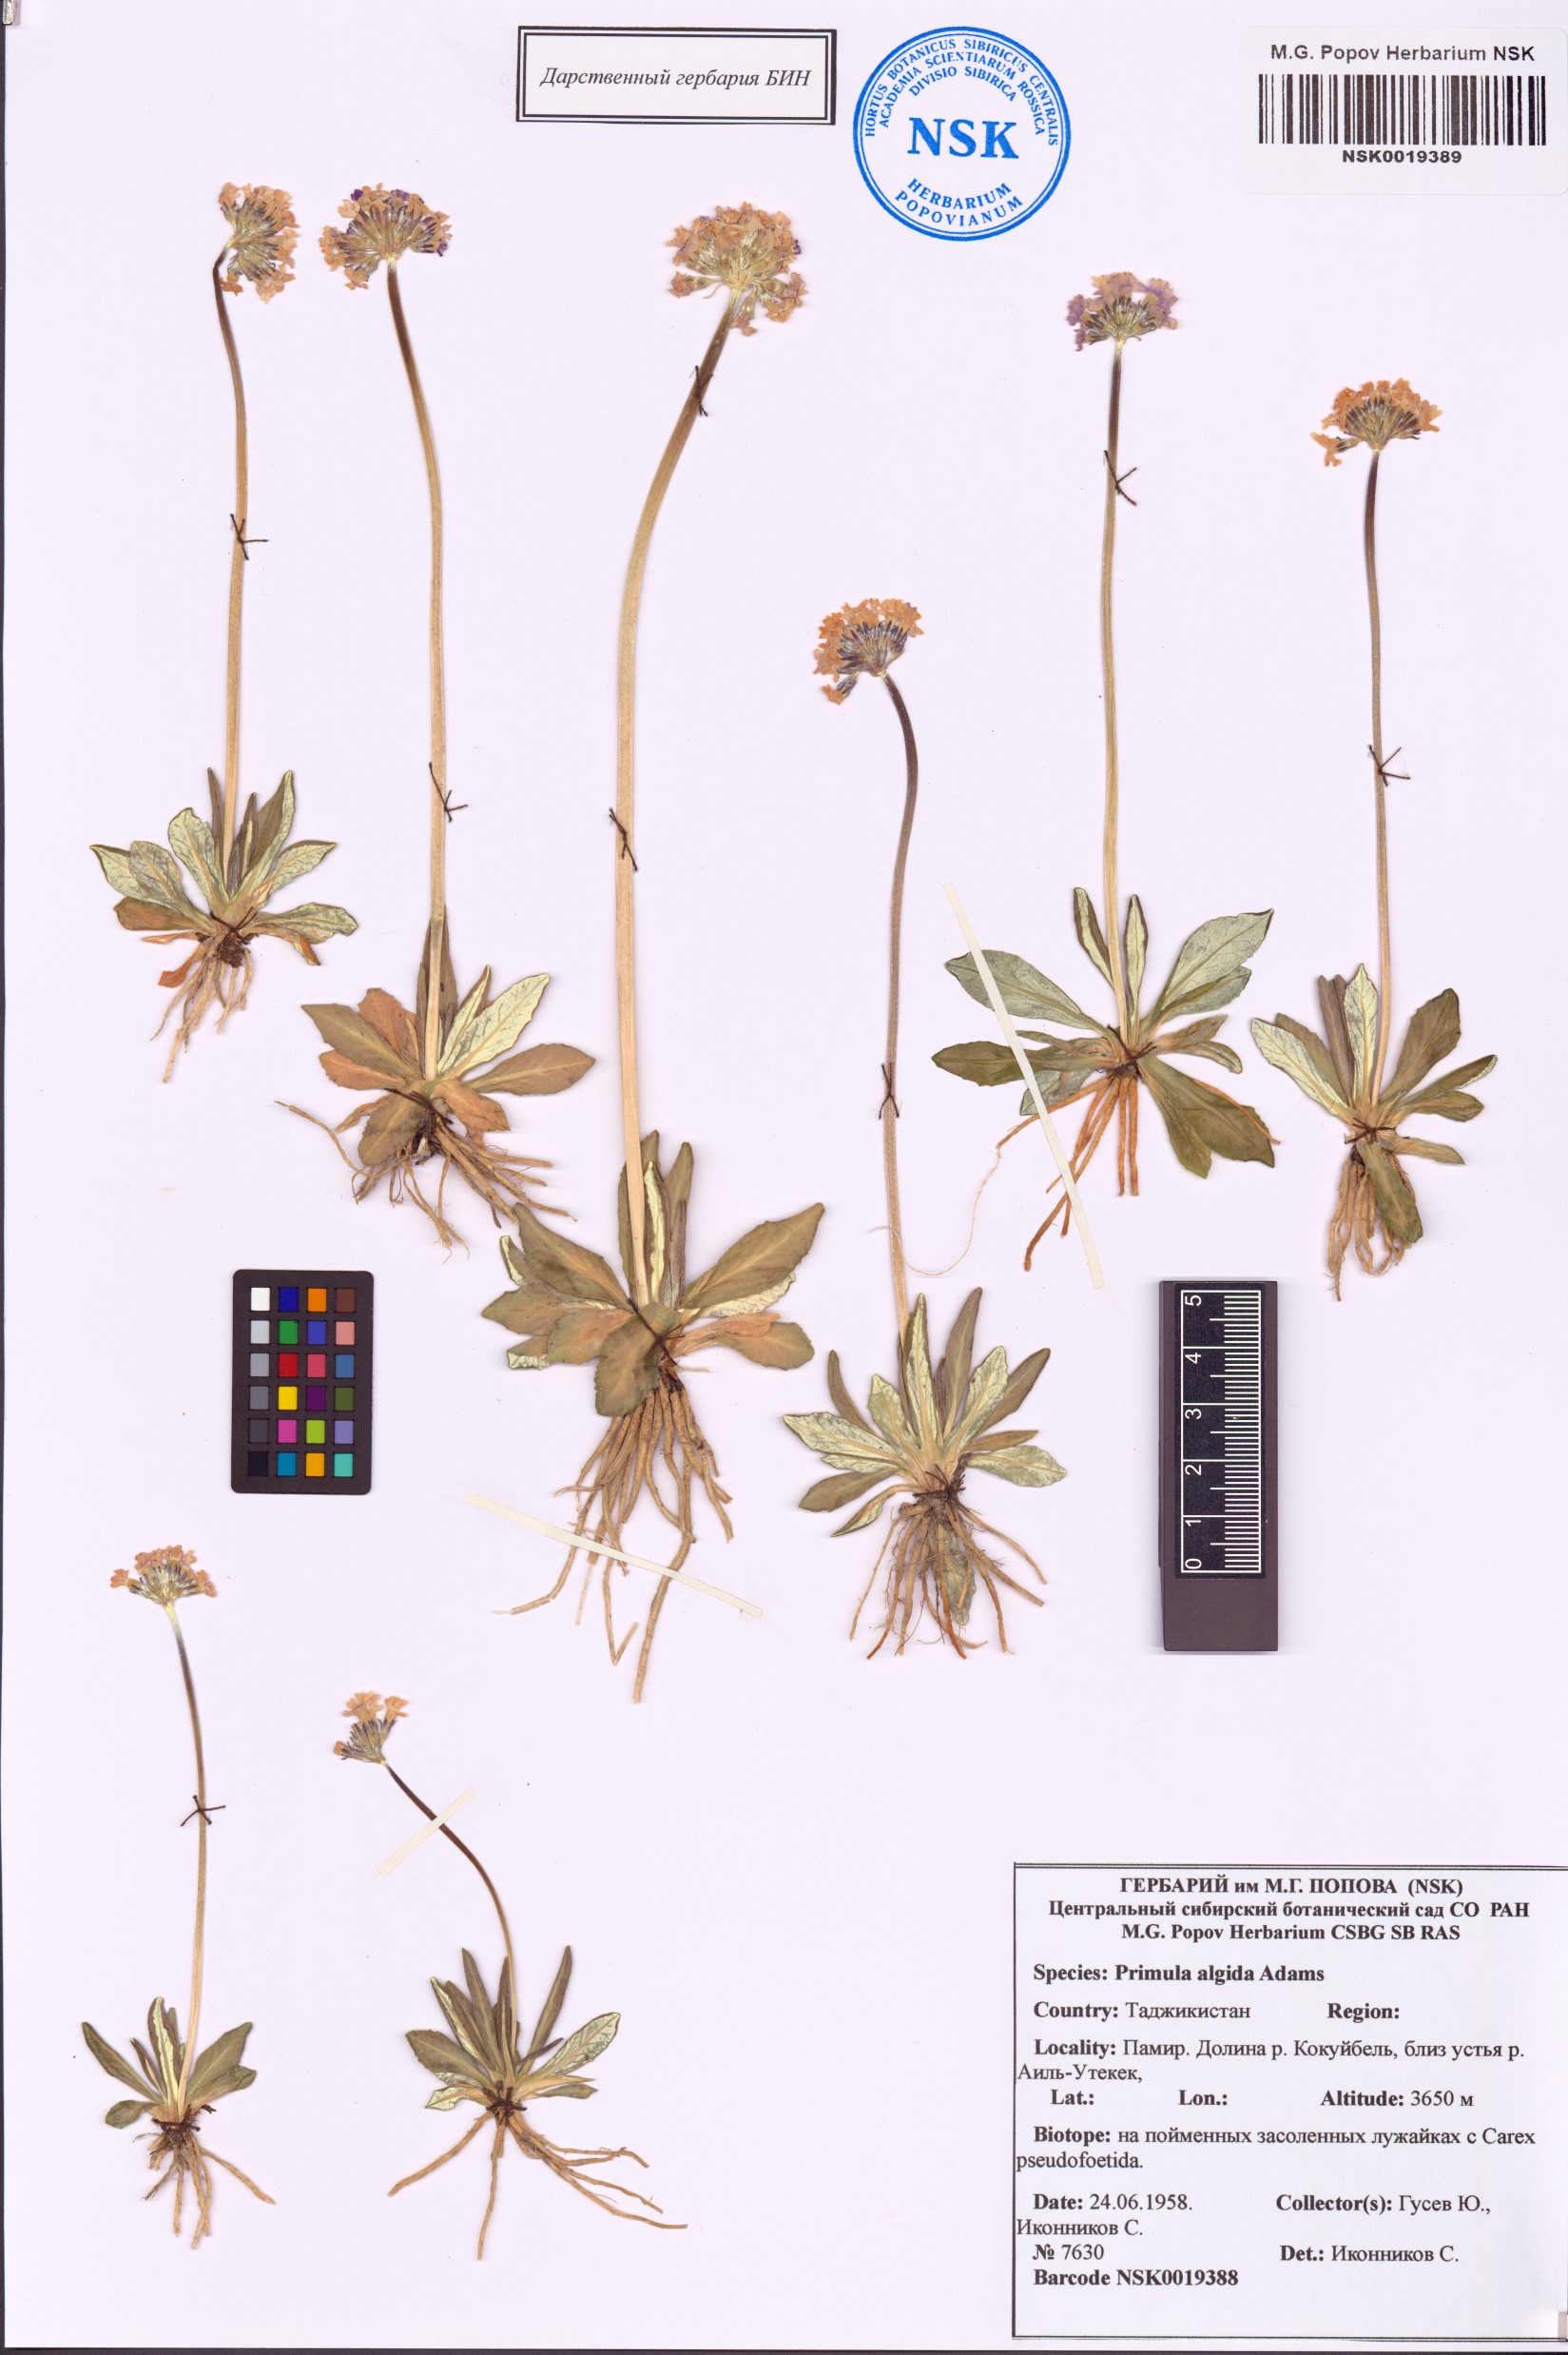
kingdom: Plantae
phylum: Tracheophyta
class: Magnoliopsida
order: Ericales
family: Primulaceae
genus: Primula
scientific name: Primula algida
